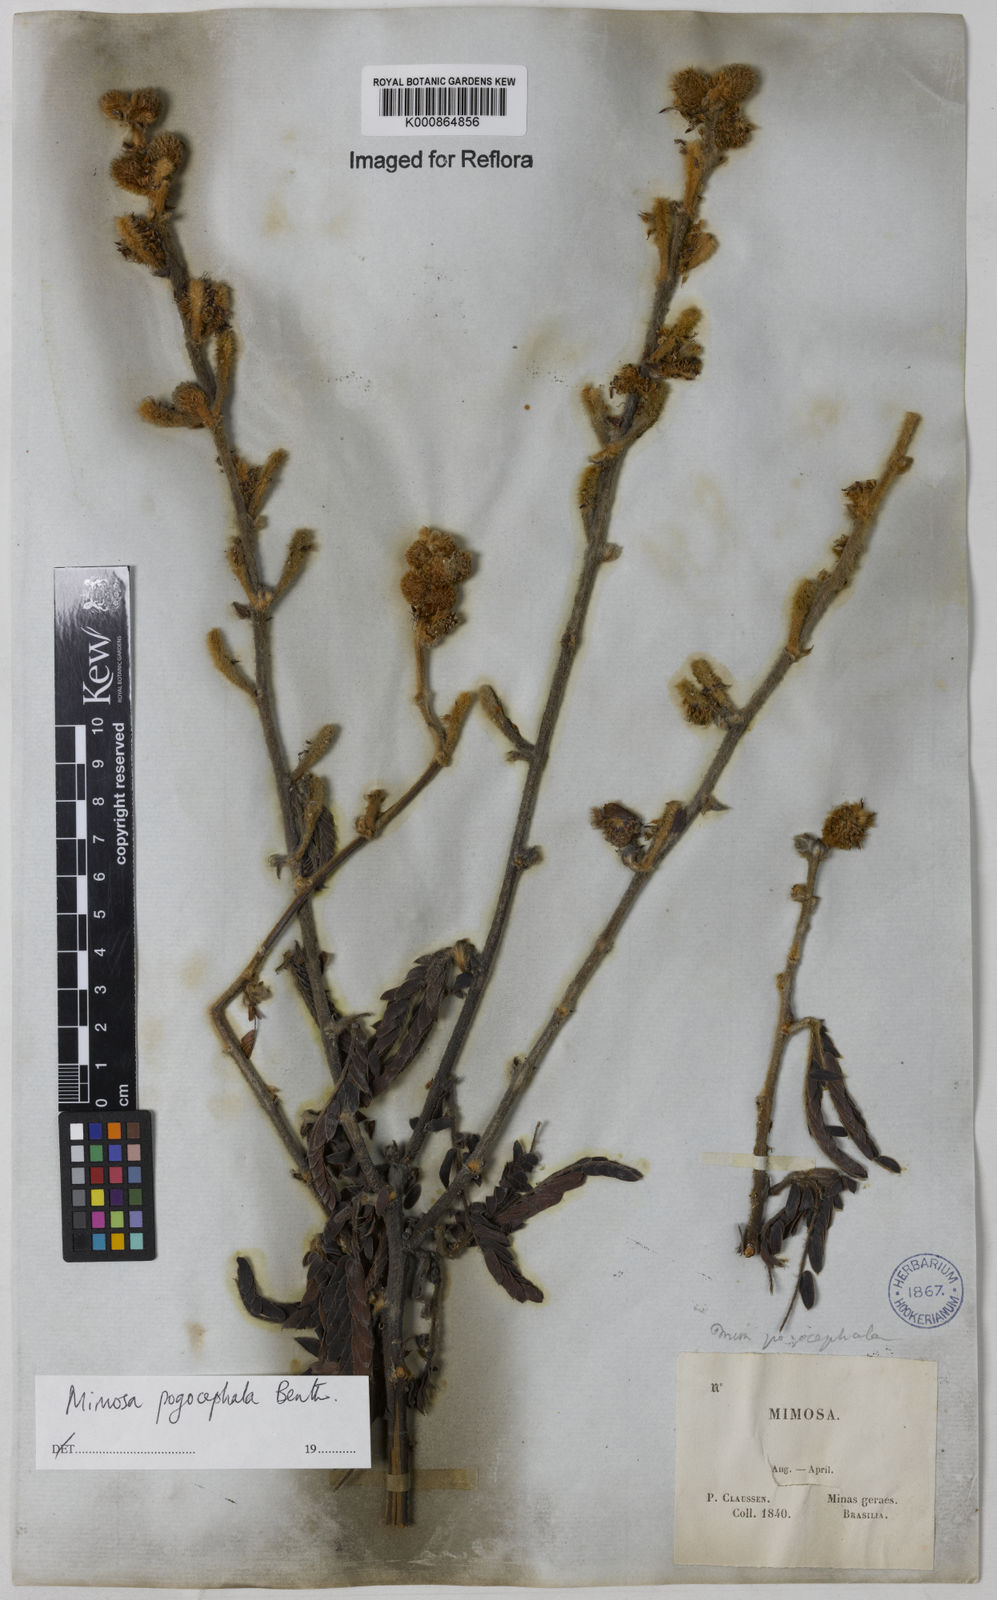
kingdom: Plantae
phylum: Tracheophyta
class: Magnoliopsida
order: Fabales
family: Fabaceae
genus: Mimosa
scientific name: Mimosa pogocephala
